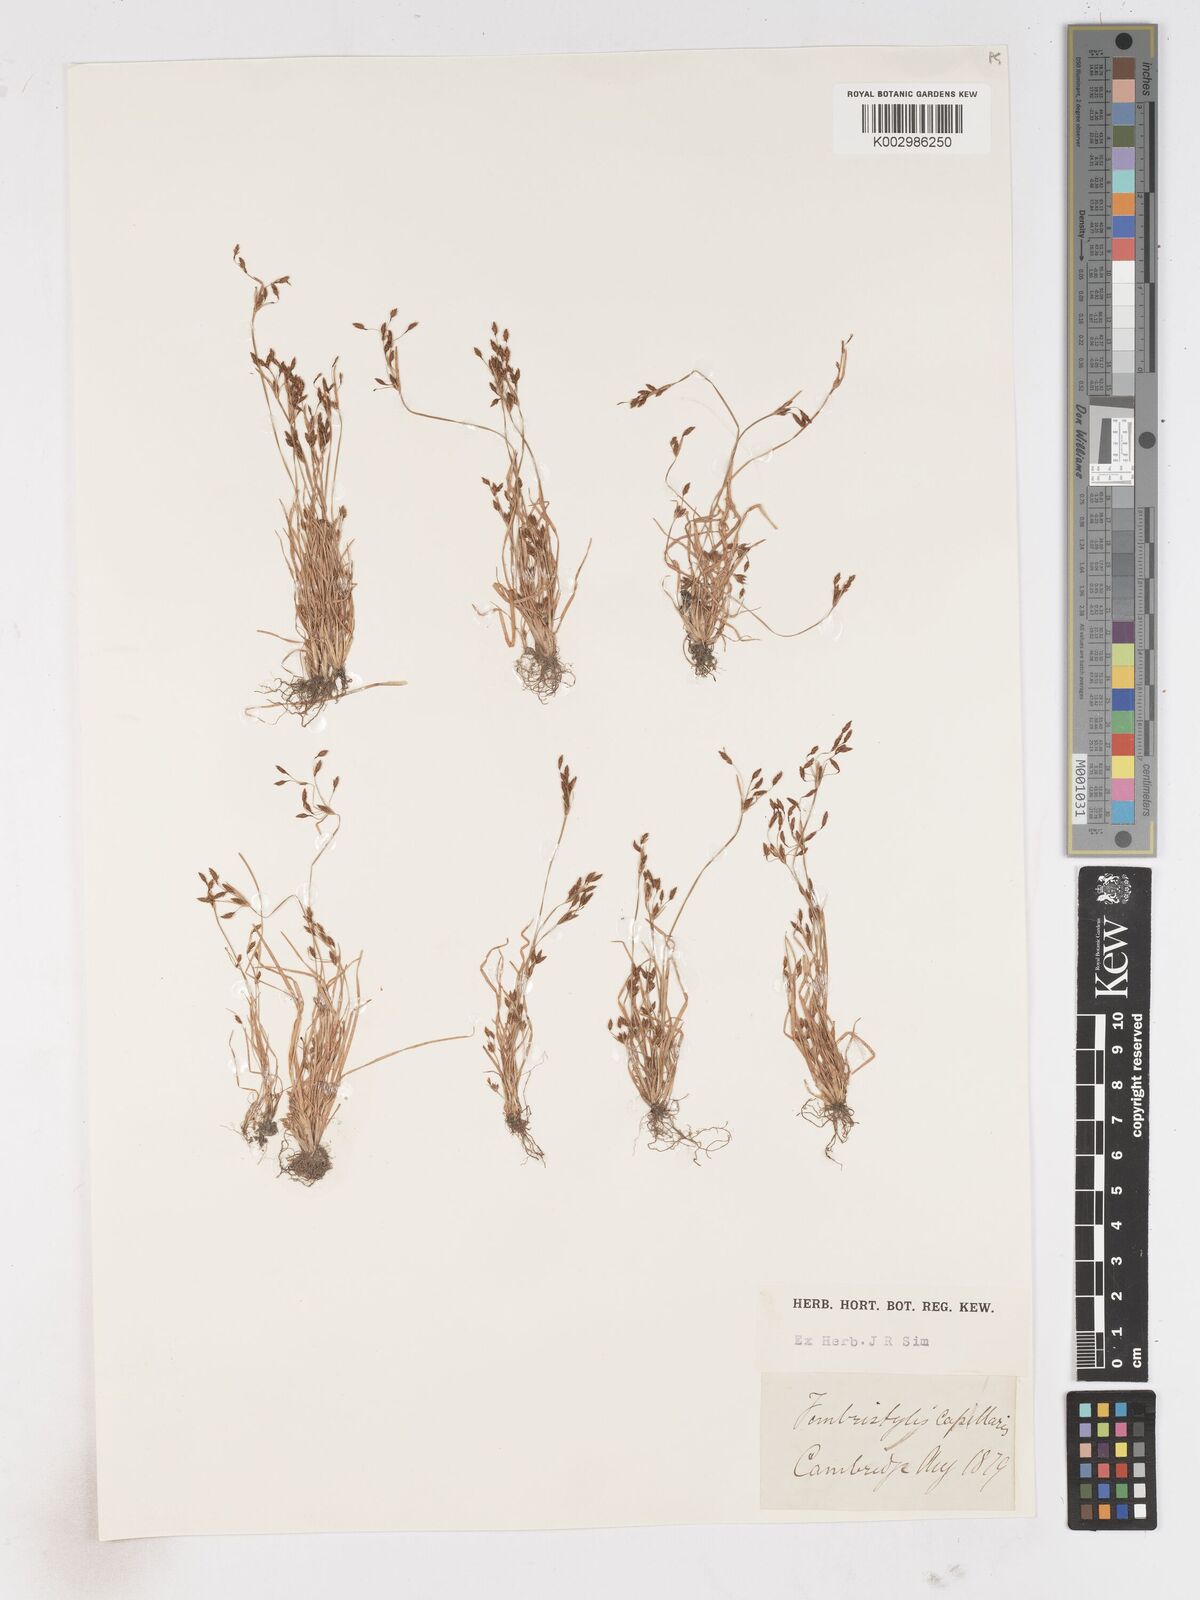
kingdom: Plantae
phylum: Tracheophyta
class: Liliopsida
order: Poales
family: Cyperaceae
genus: Fimbristylis
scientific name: Fimbristylis autumnalis
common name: Slender fimbristylis
